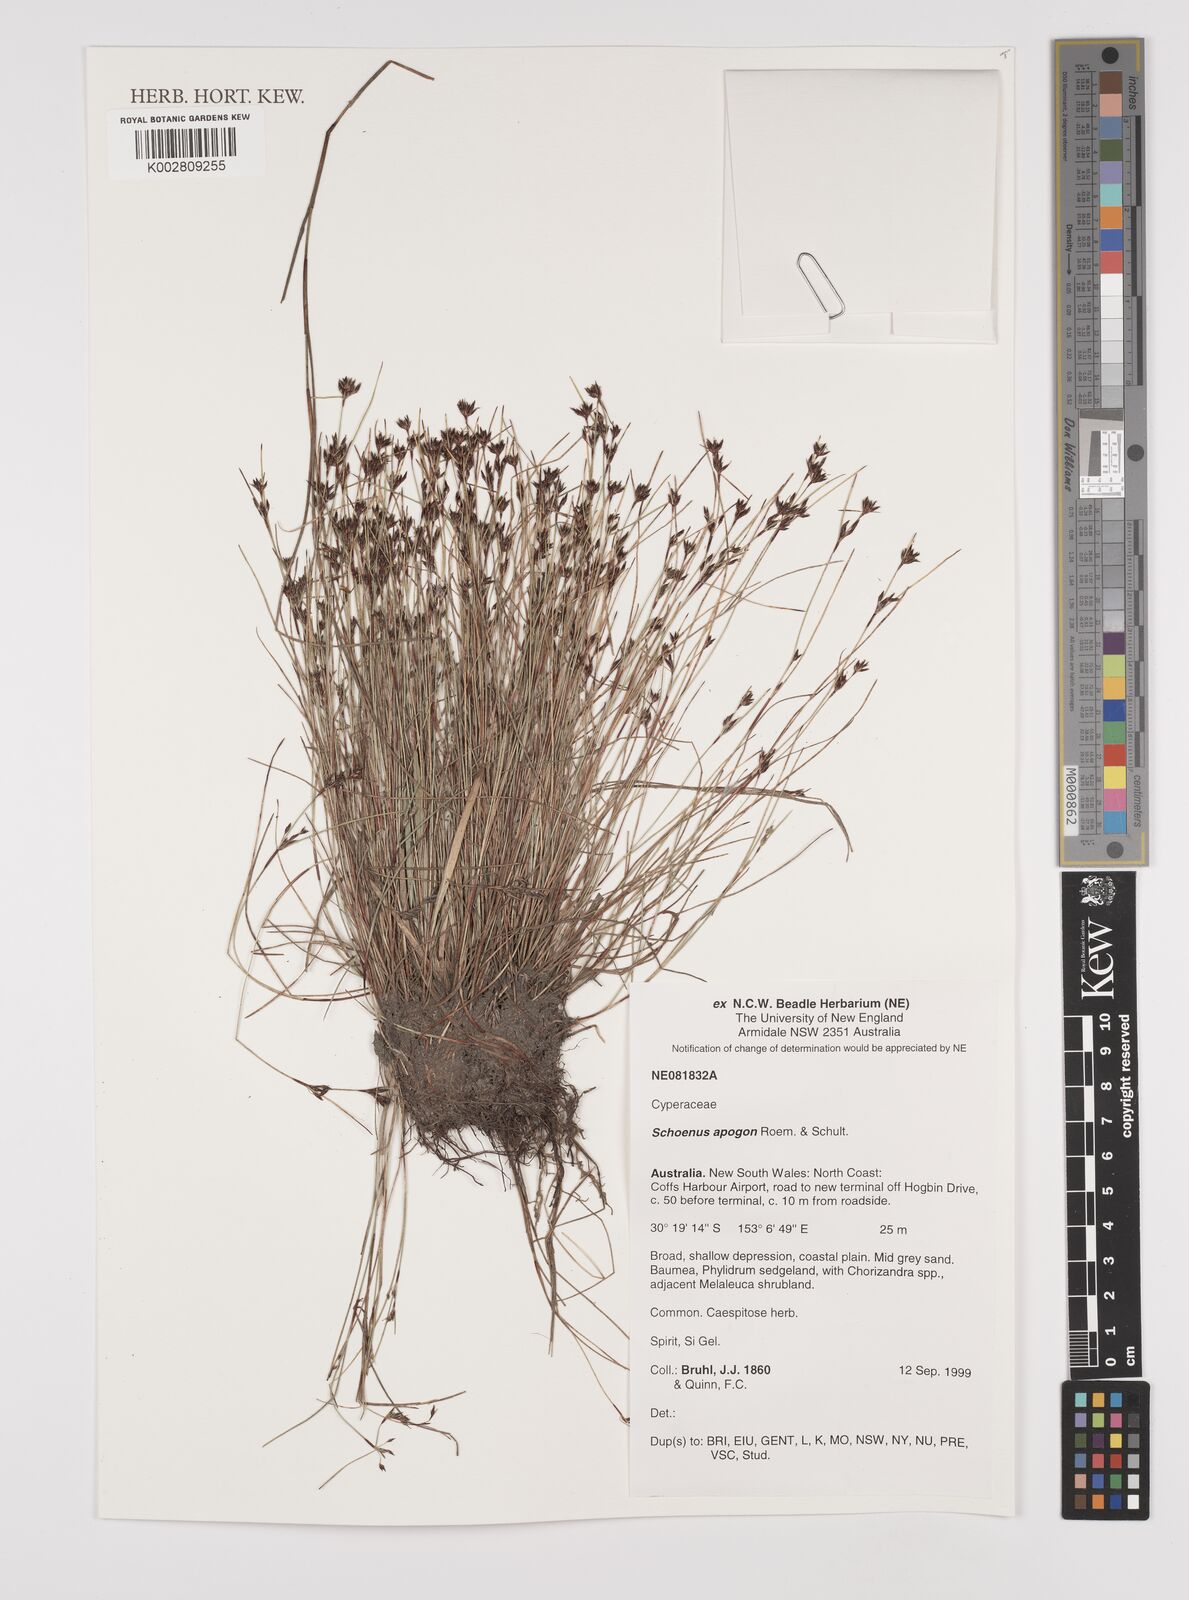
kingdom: Plantae
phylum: Tracheophyta
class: Liliopsida
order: Poales
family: Cyperaceae
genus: Schoenus
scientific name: Schoenus apogon
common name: Smooth bogrush
